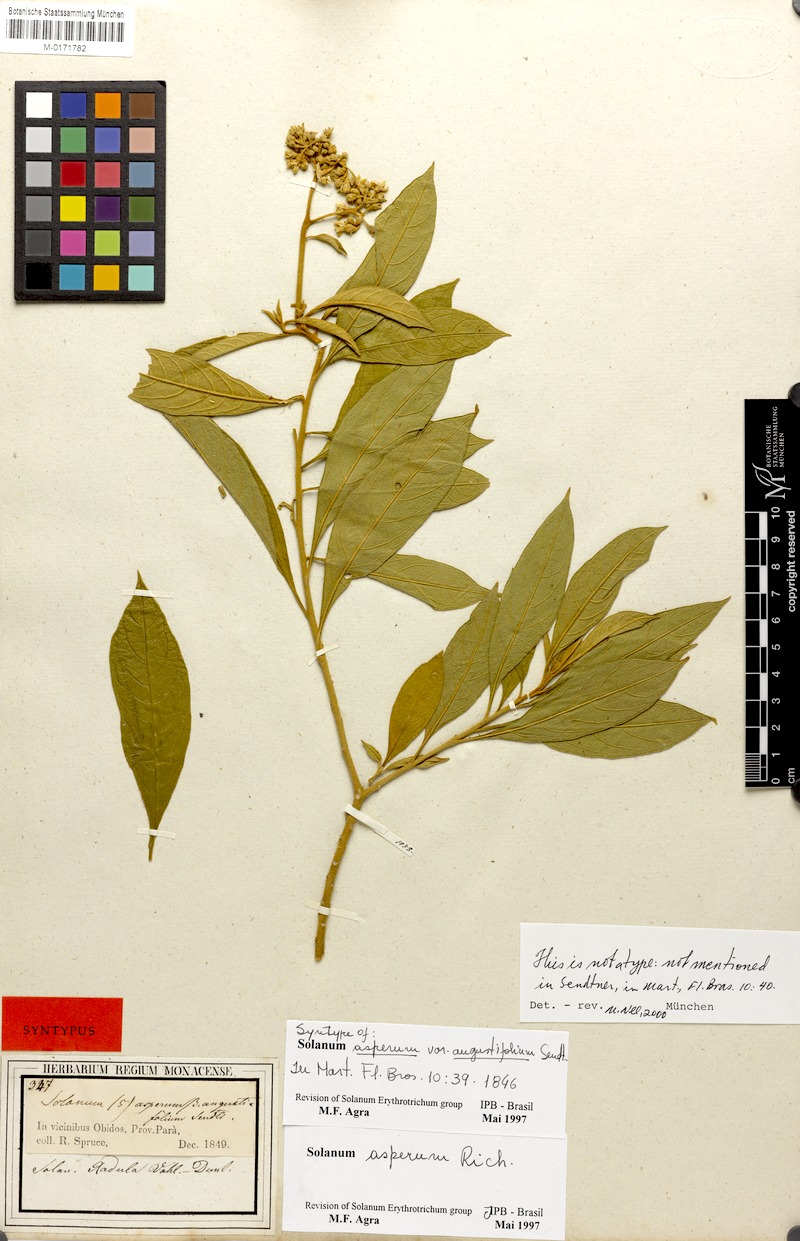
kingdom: Plantae
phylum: Tracheophyta
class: Magnoliopsida
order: Solanales
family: Solanaceae
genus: Solanum
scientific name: Solanum asperum
